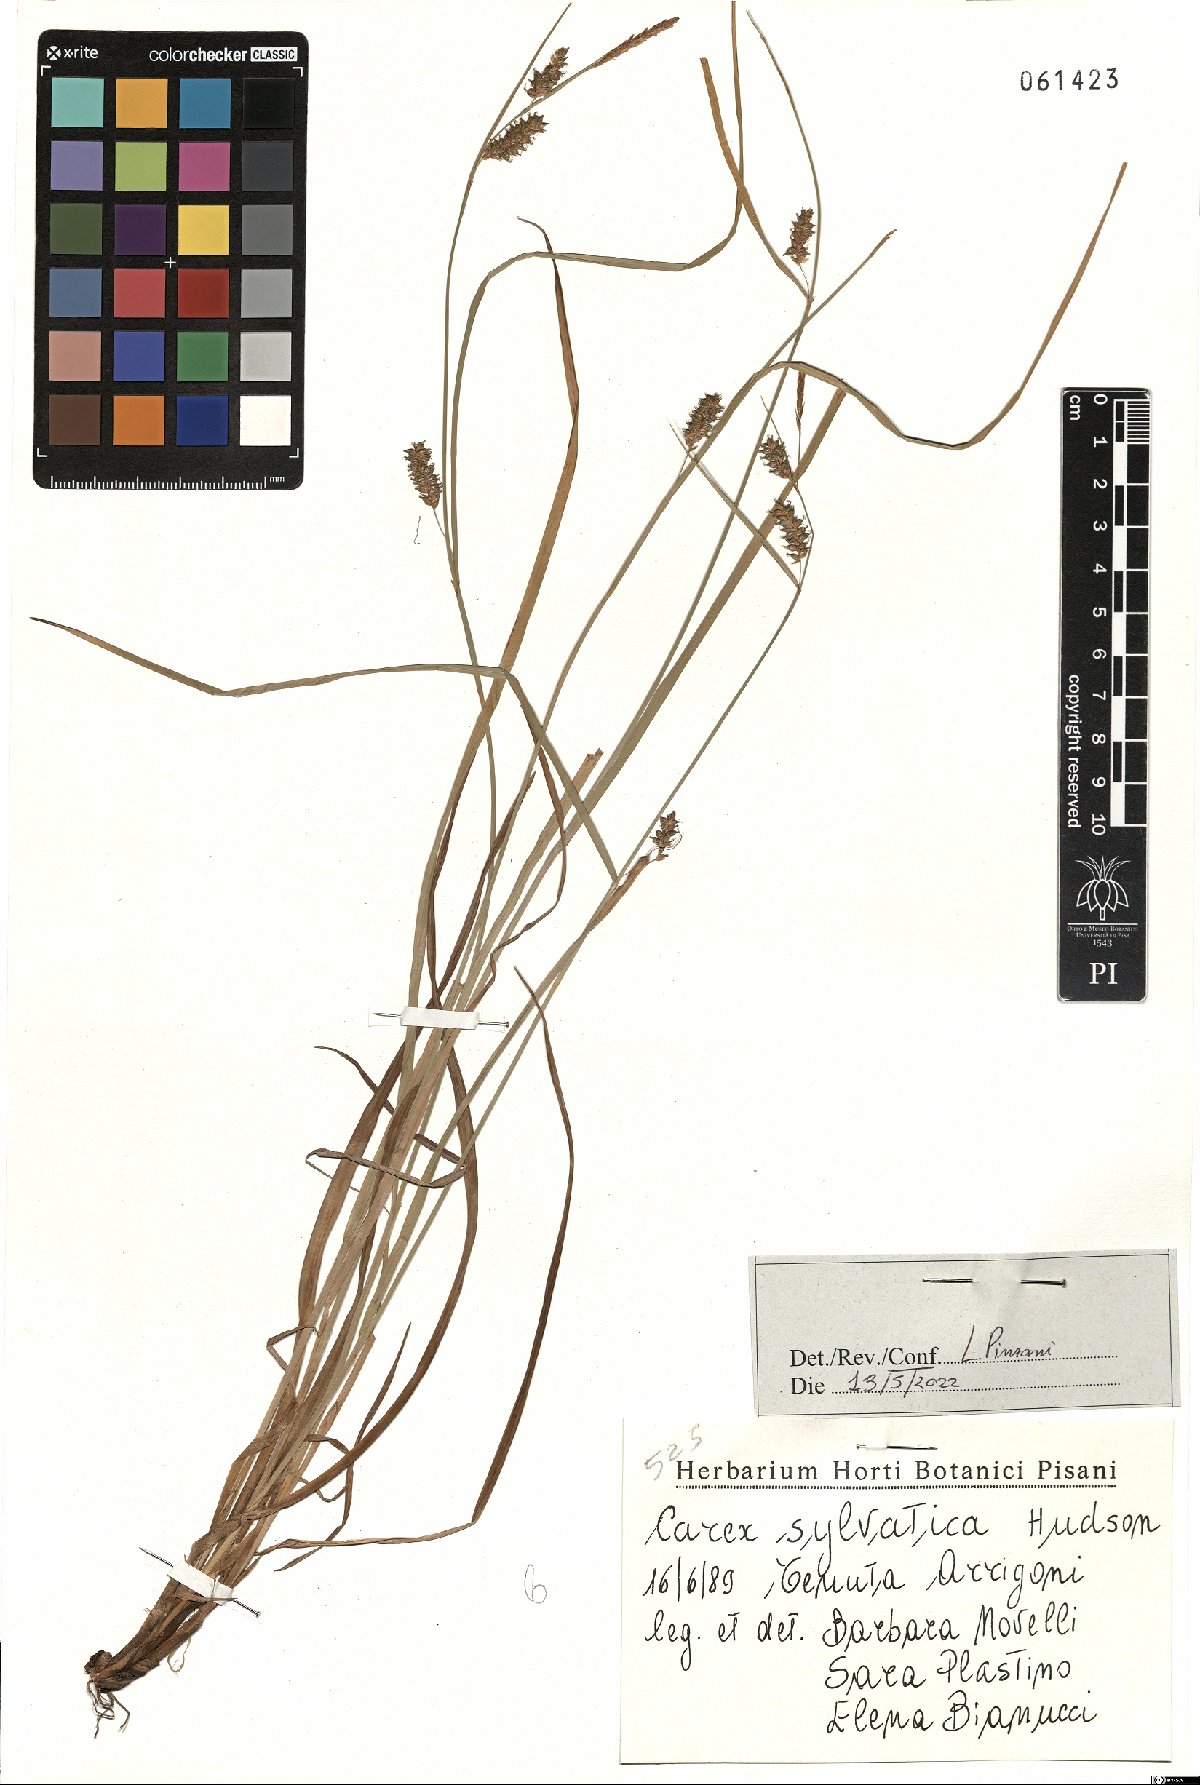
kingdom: Plantae
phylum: Tracheophyta
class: Liliopsida
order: Poales
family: Cyperaceae
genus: Carex
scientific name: Carex sylvatica
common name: Wood-sedge
